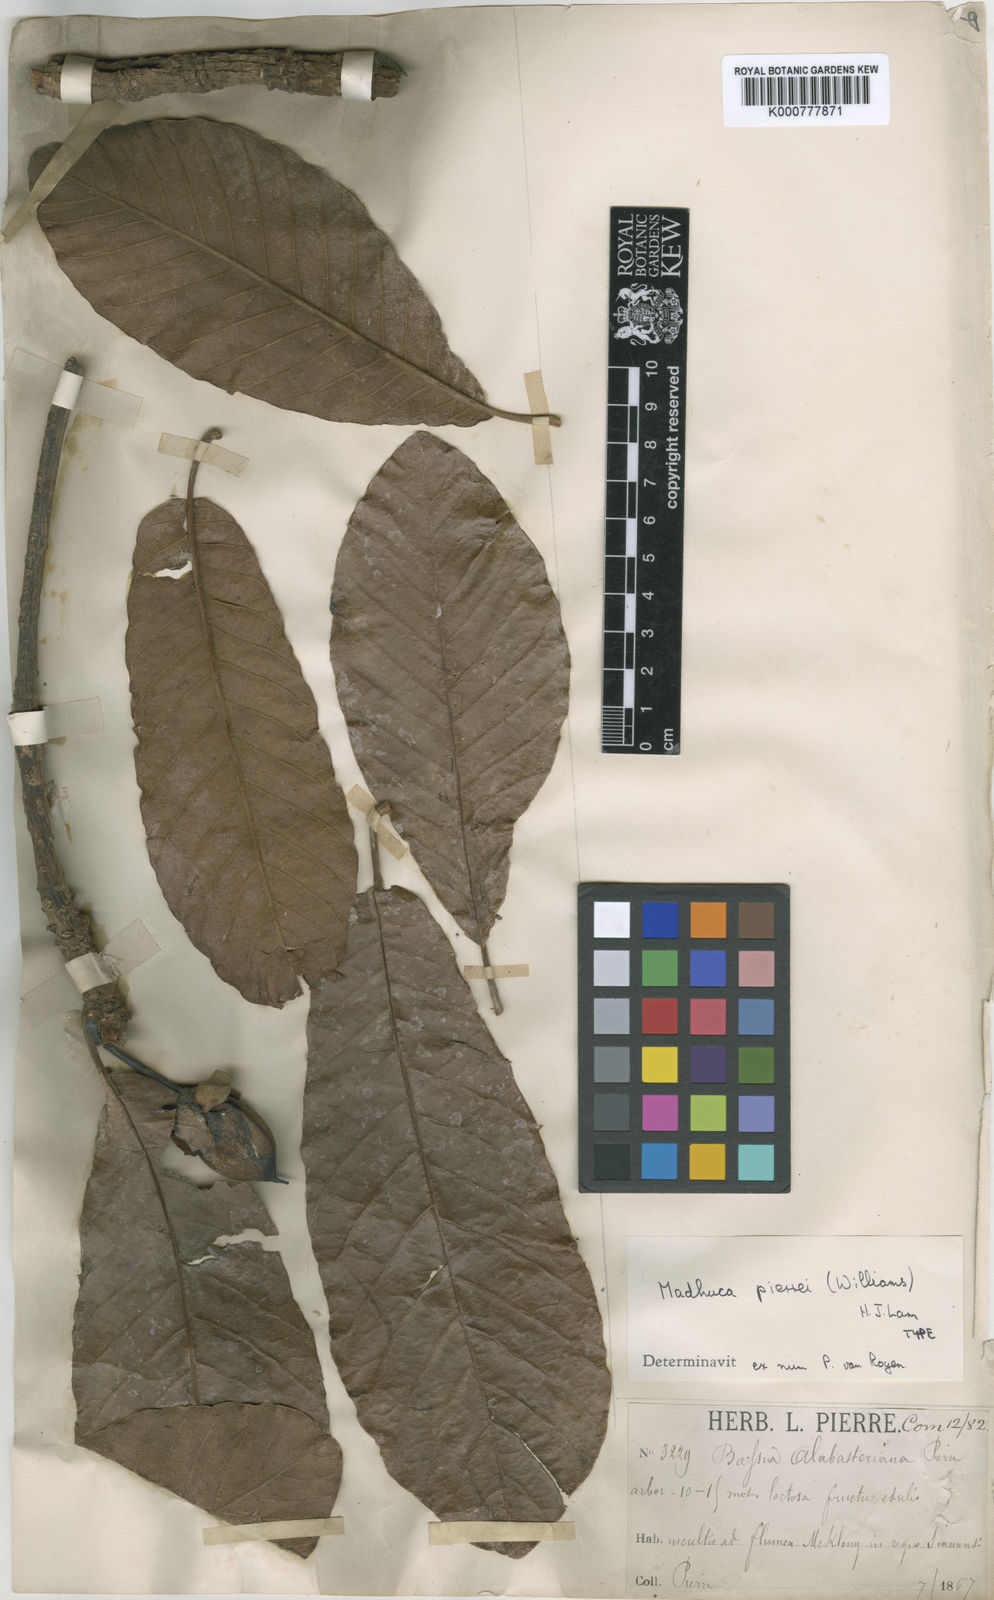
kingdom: Plantae
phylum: Tracheophyta
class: Magnoliopsida
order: Ericales
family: Sapotaceae
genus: Madhuca
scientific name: Madhuca pierrei
